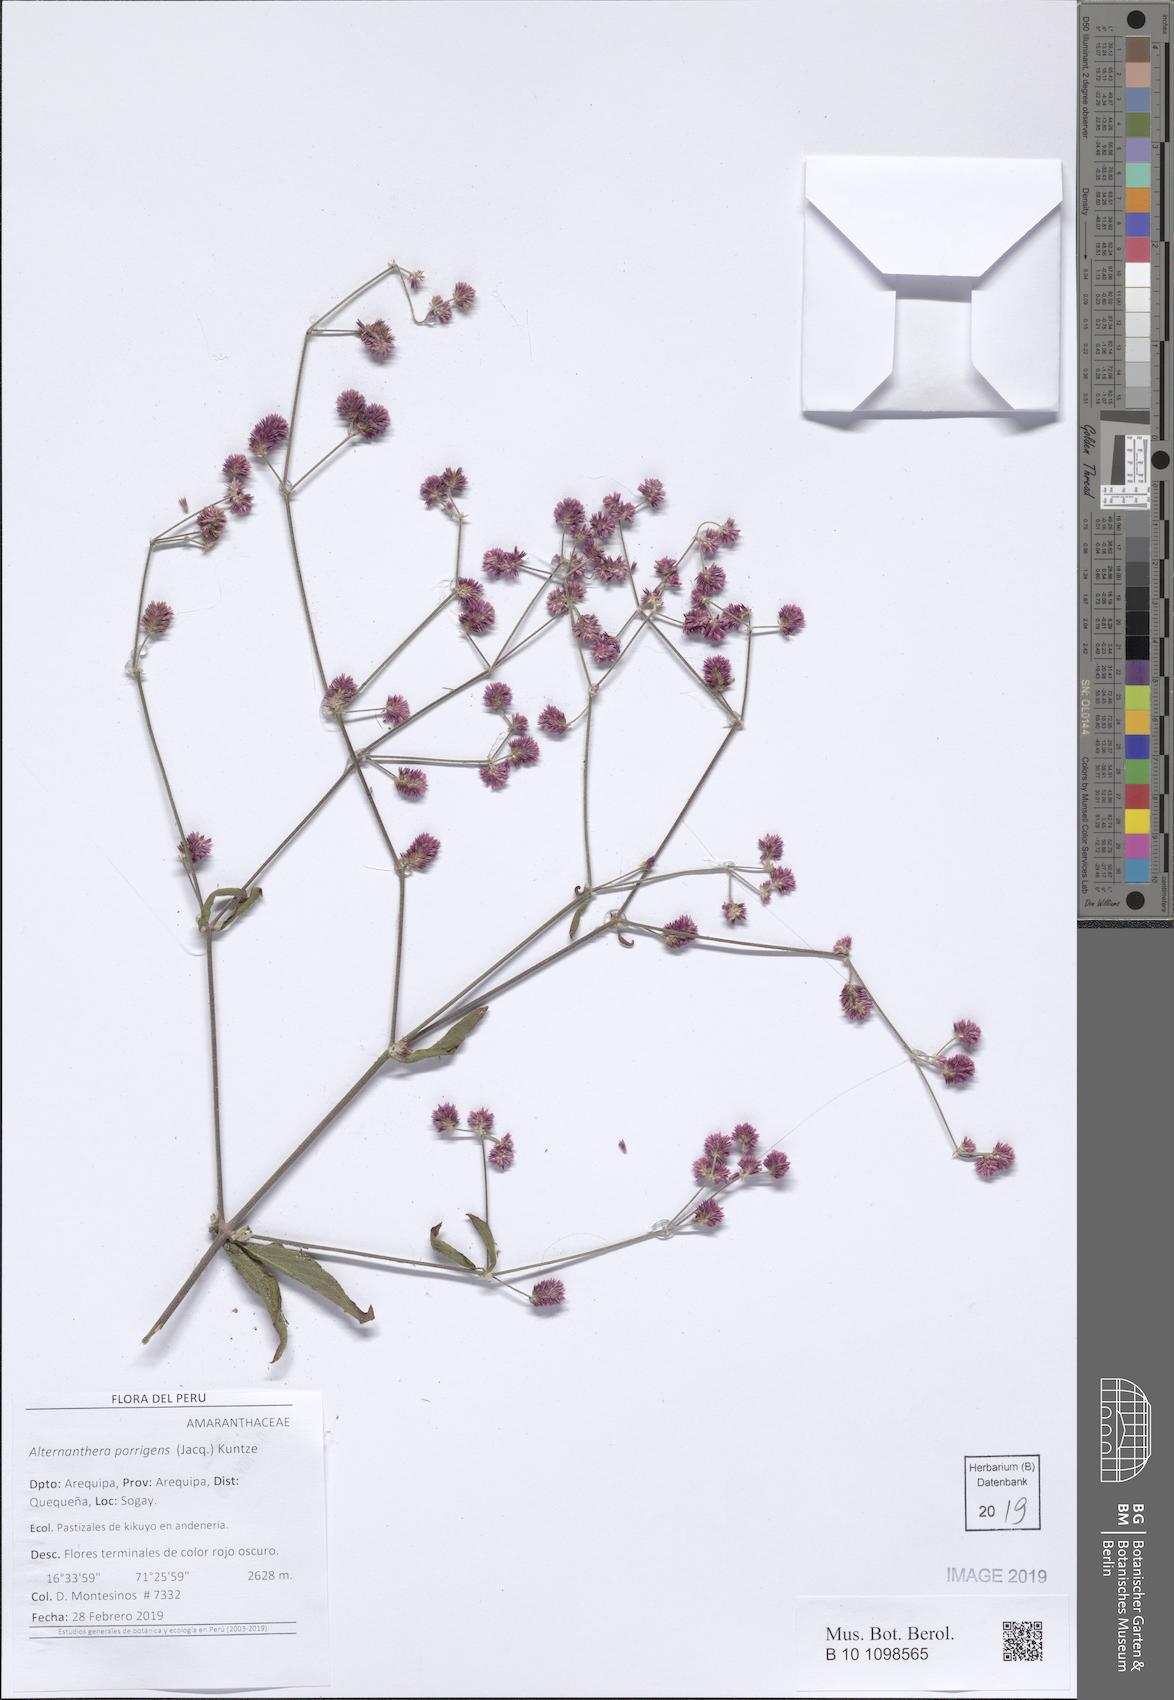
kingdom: Plantae
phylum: Tracheophyta
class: Magnoliopsida
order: Caryophyllales
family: Amaranthaceae
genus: Alternanthera
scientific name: Alternanthera porrigens
